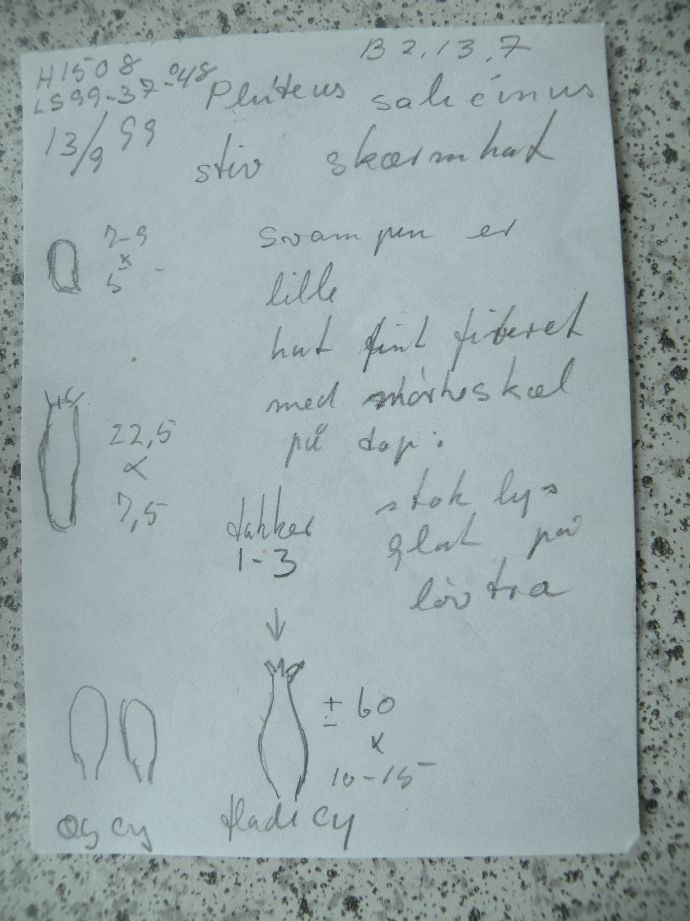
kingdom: Fungi
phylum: Basidiomycota
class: Agaricomycetes
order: Agaricales
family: Pluteaceae
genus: Pluteus
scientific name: Pluteus salicinus
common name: stiv skærmhat
